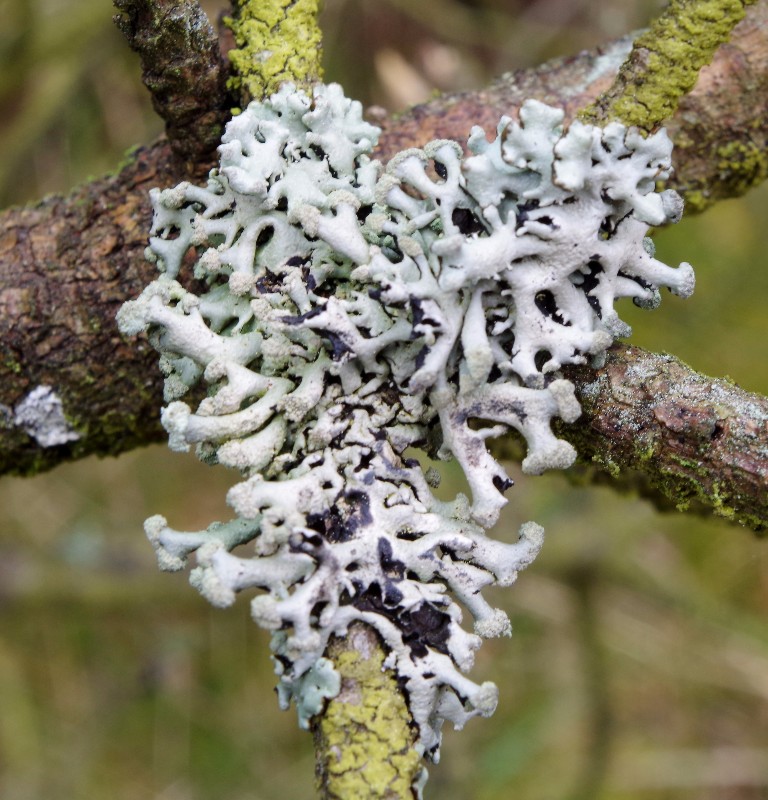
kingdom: Fungi
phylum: Ascomycota
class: Lecanoromycetes
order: Lecanorales
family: Parmeliaceae
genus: Hypogymnia
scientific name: Hypogymnia tubulosa
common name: finger-kvistlav
